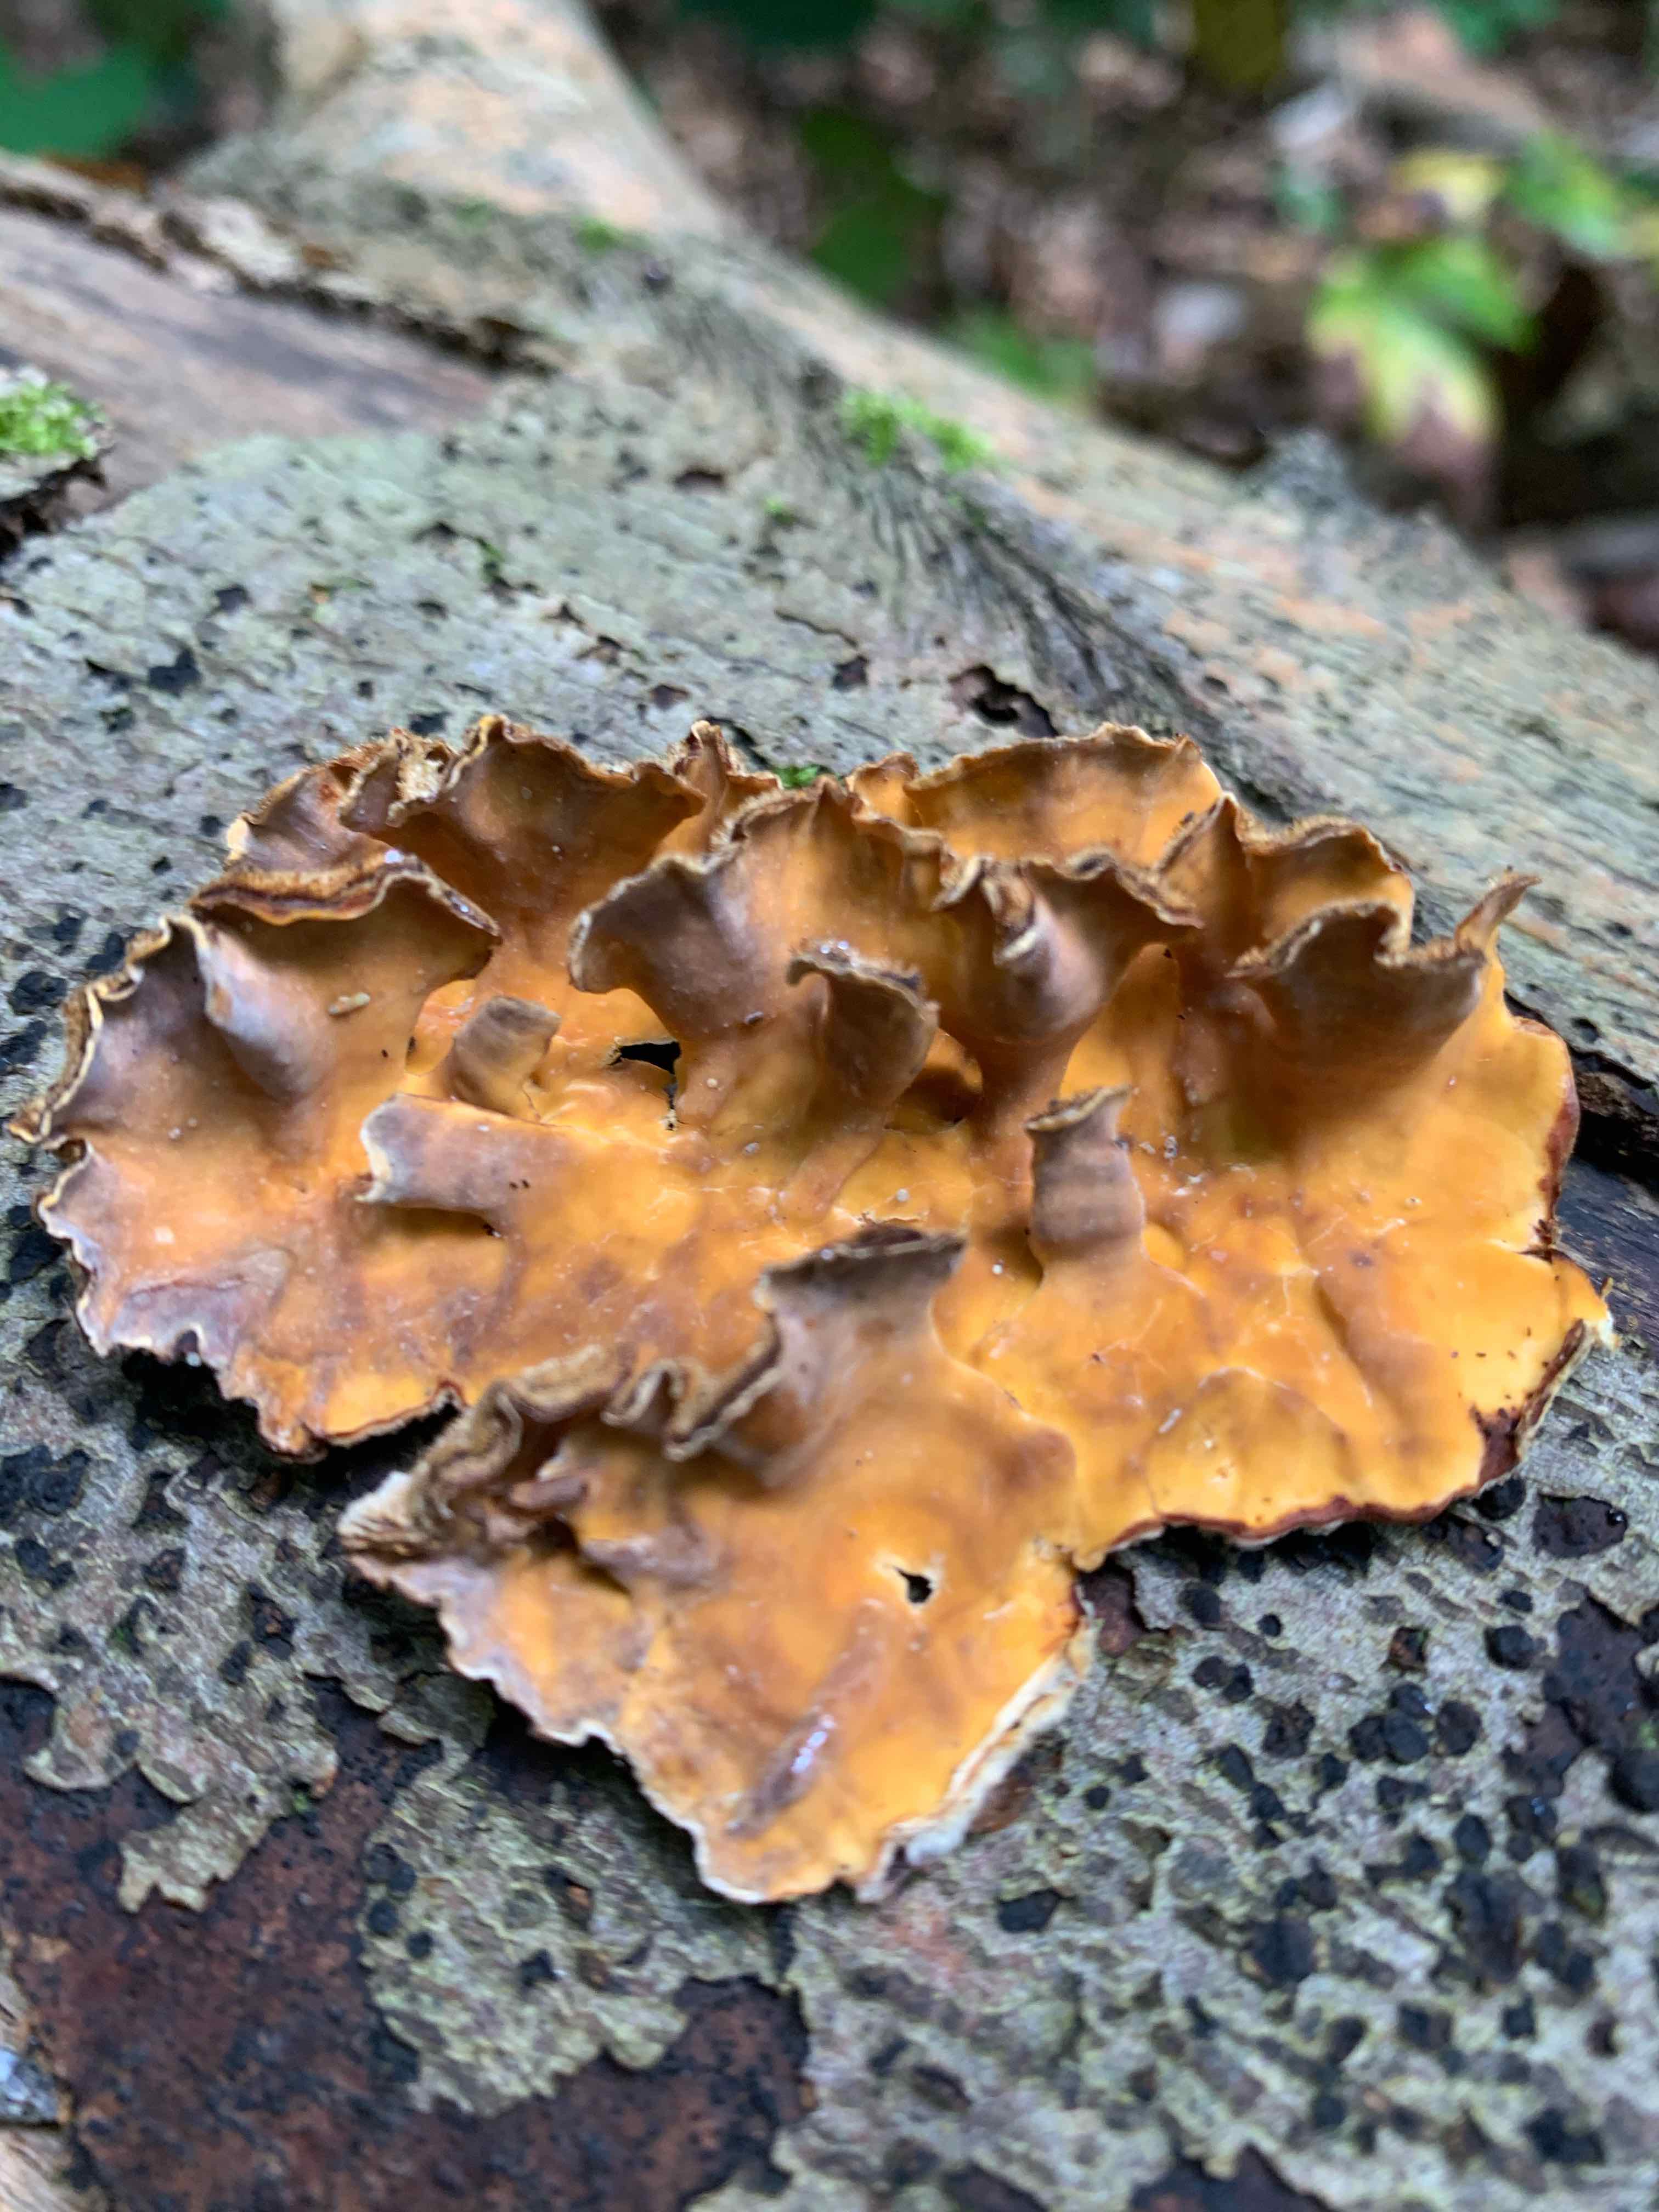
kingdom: Fungi
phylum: Basidiomycota
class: Agaricomycetes
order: Russulales
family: Stereaceae
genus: Stereum
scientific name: Stereum hirsutum
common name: håret lædersvamp
